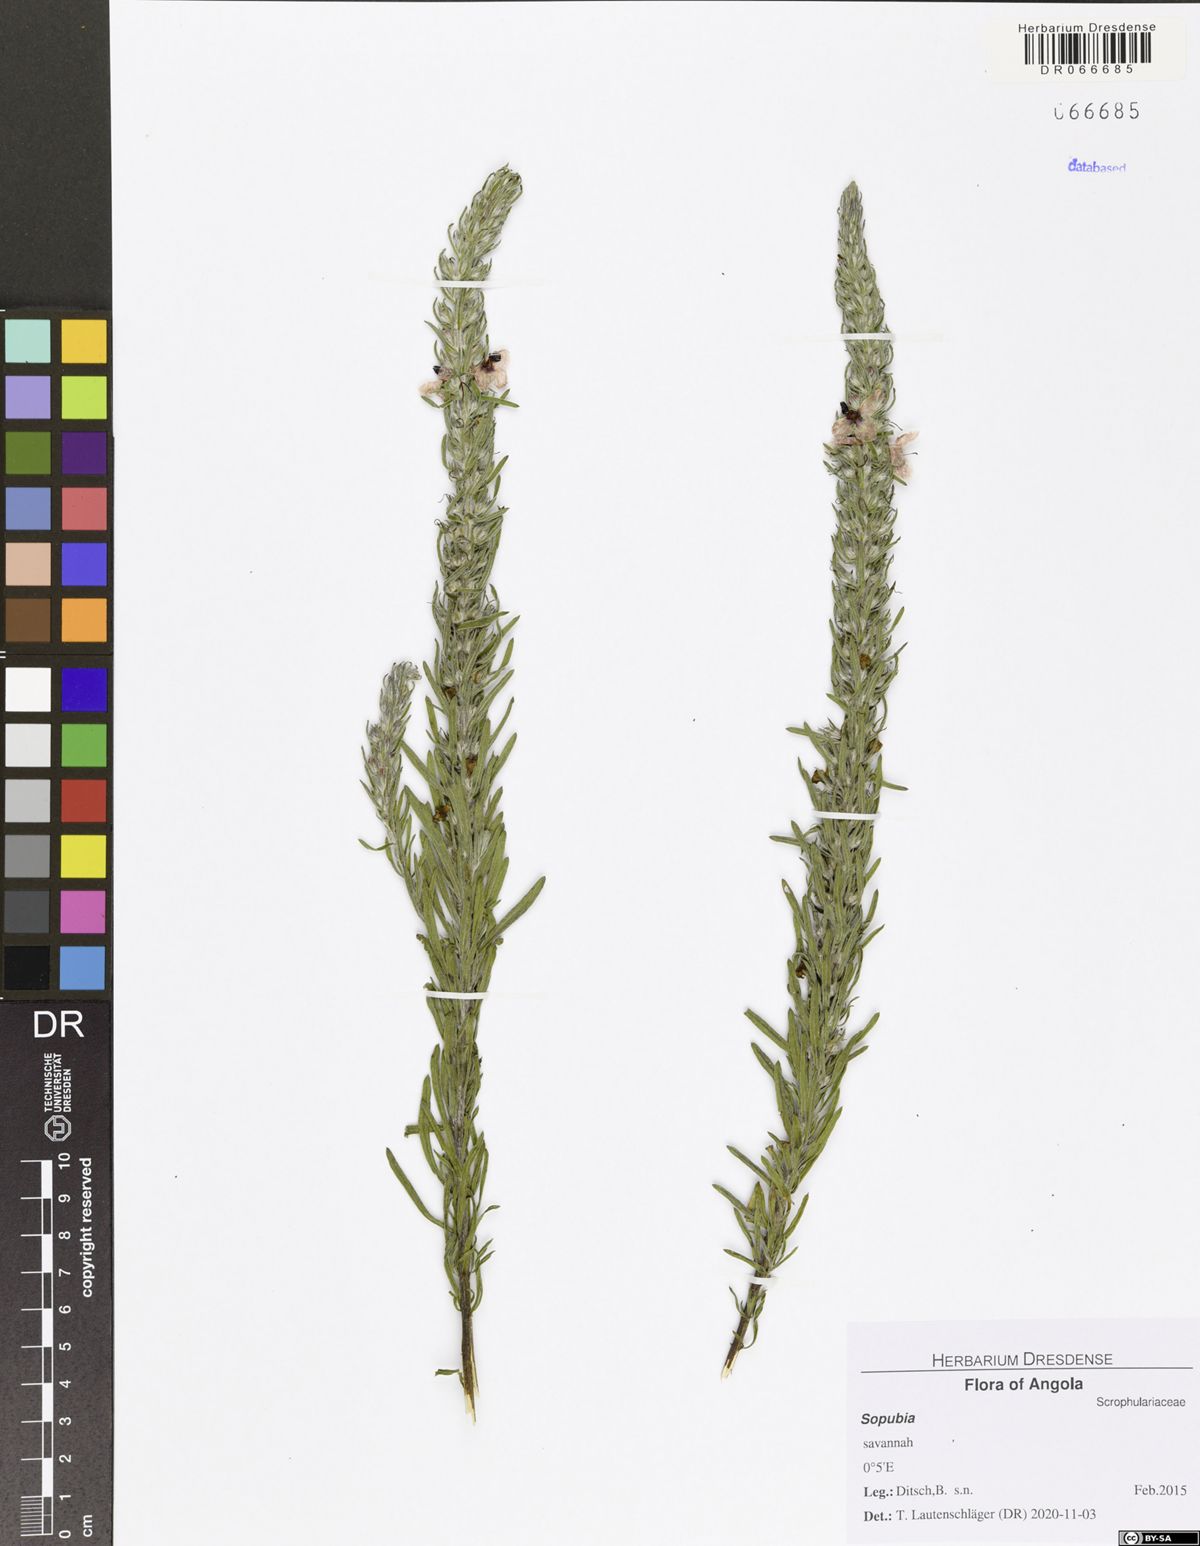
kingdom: Plantae
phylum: Tracheophyta
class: Magnoliopsida
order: Lamiales
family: Orobanchaceae
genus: Sopubia
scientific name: Sopubia lanata
